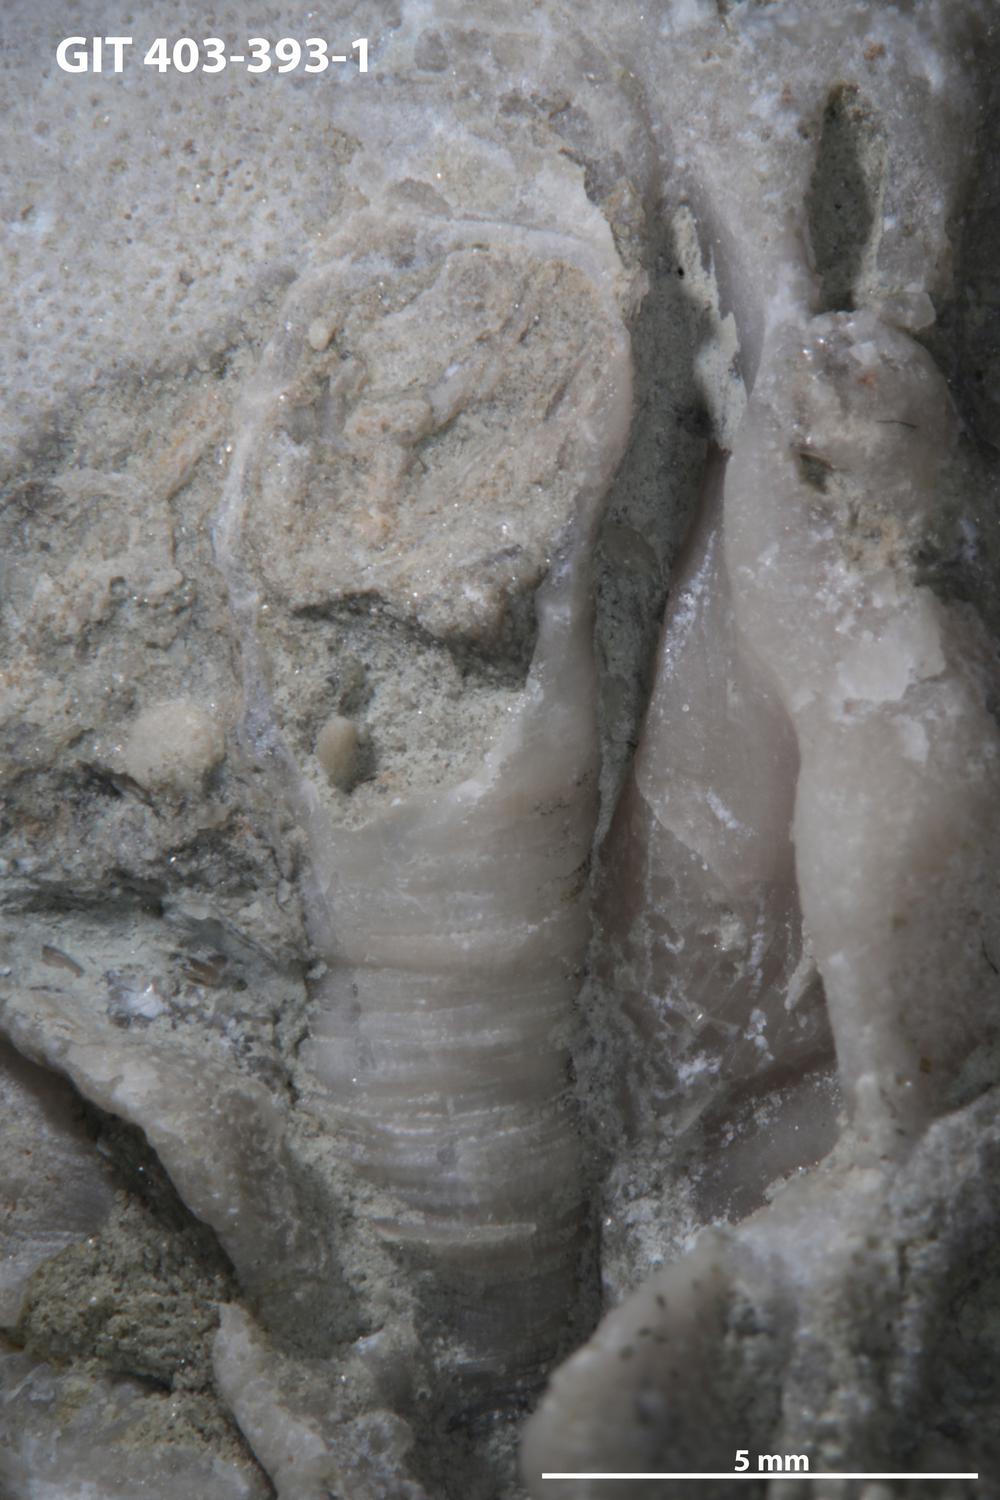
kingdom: Animalia
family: Cornulitidae
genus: Cornulites
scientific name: Cornulites
